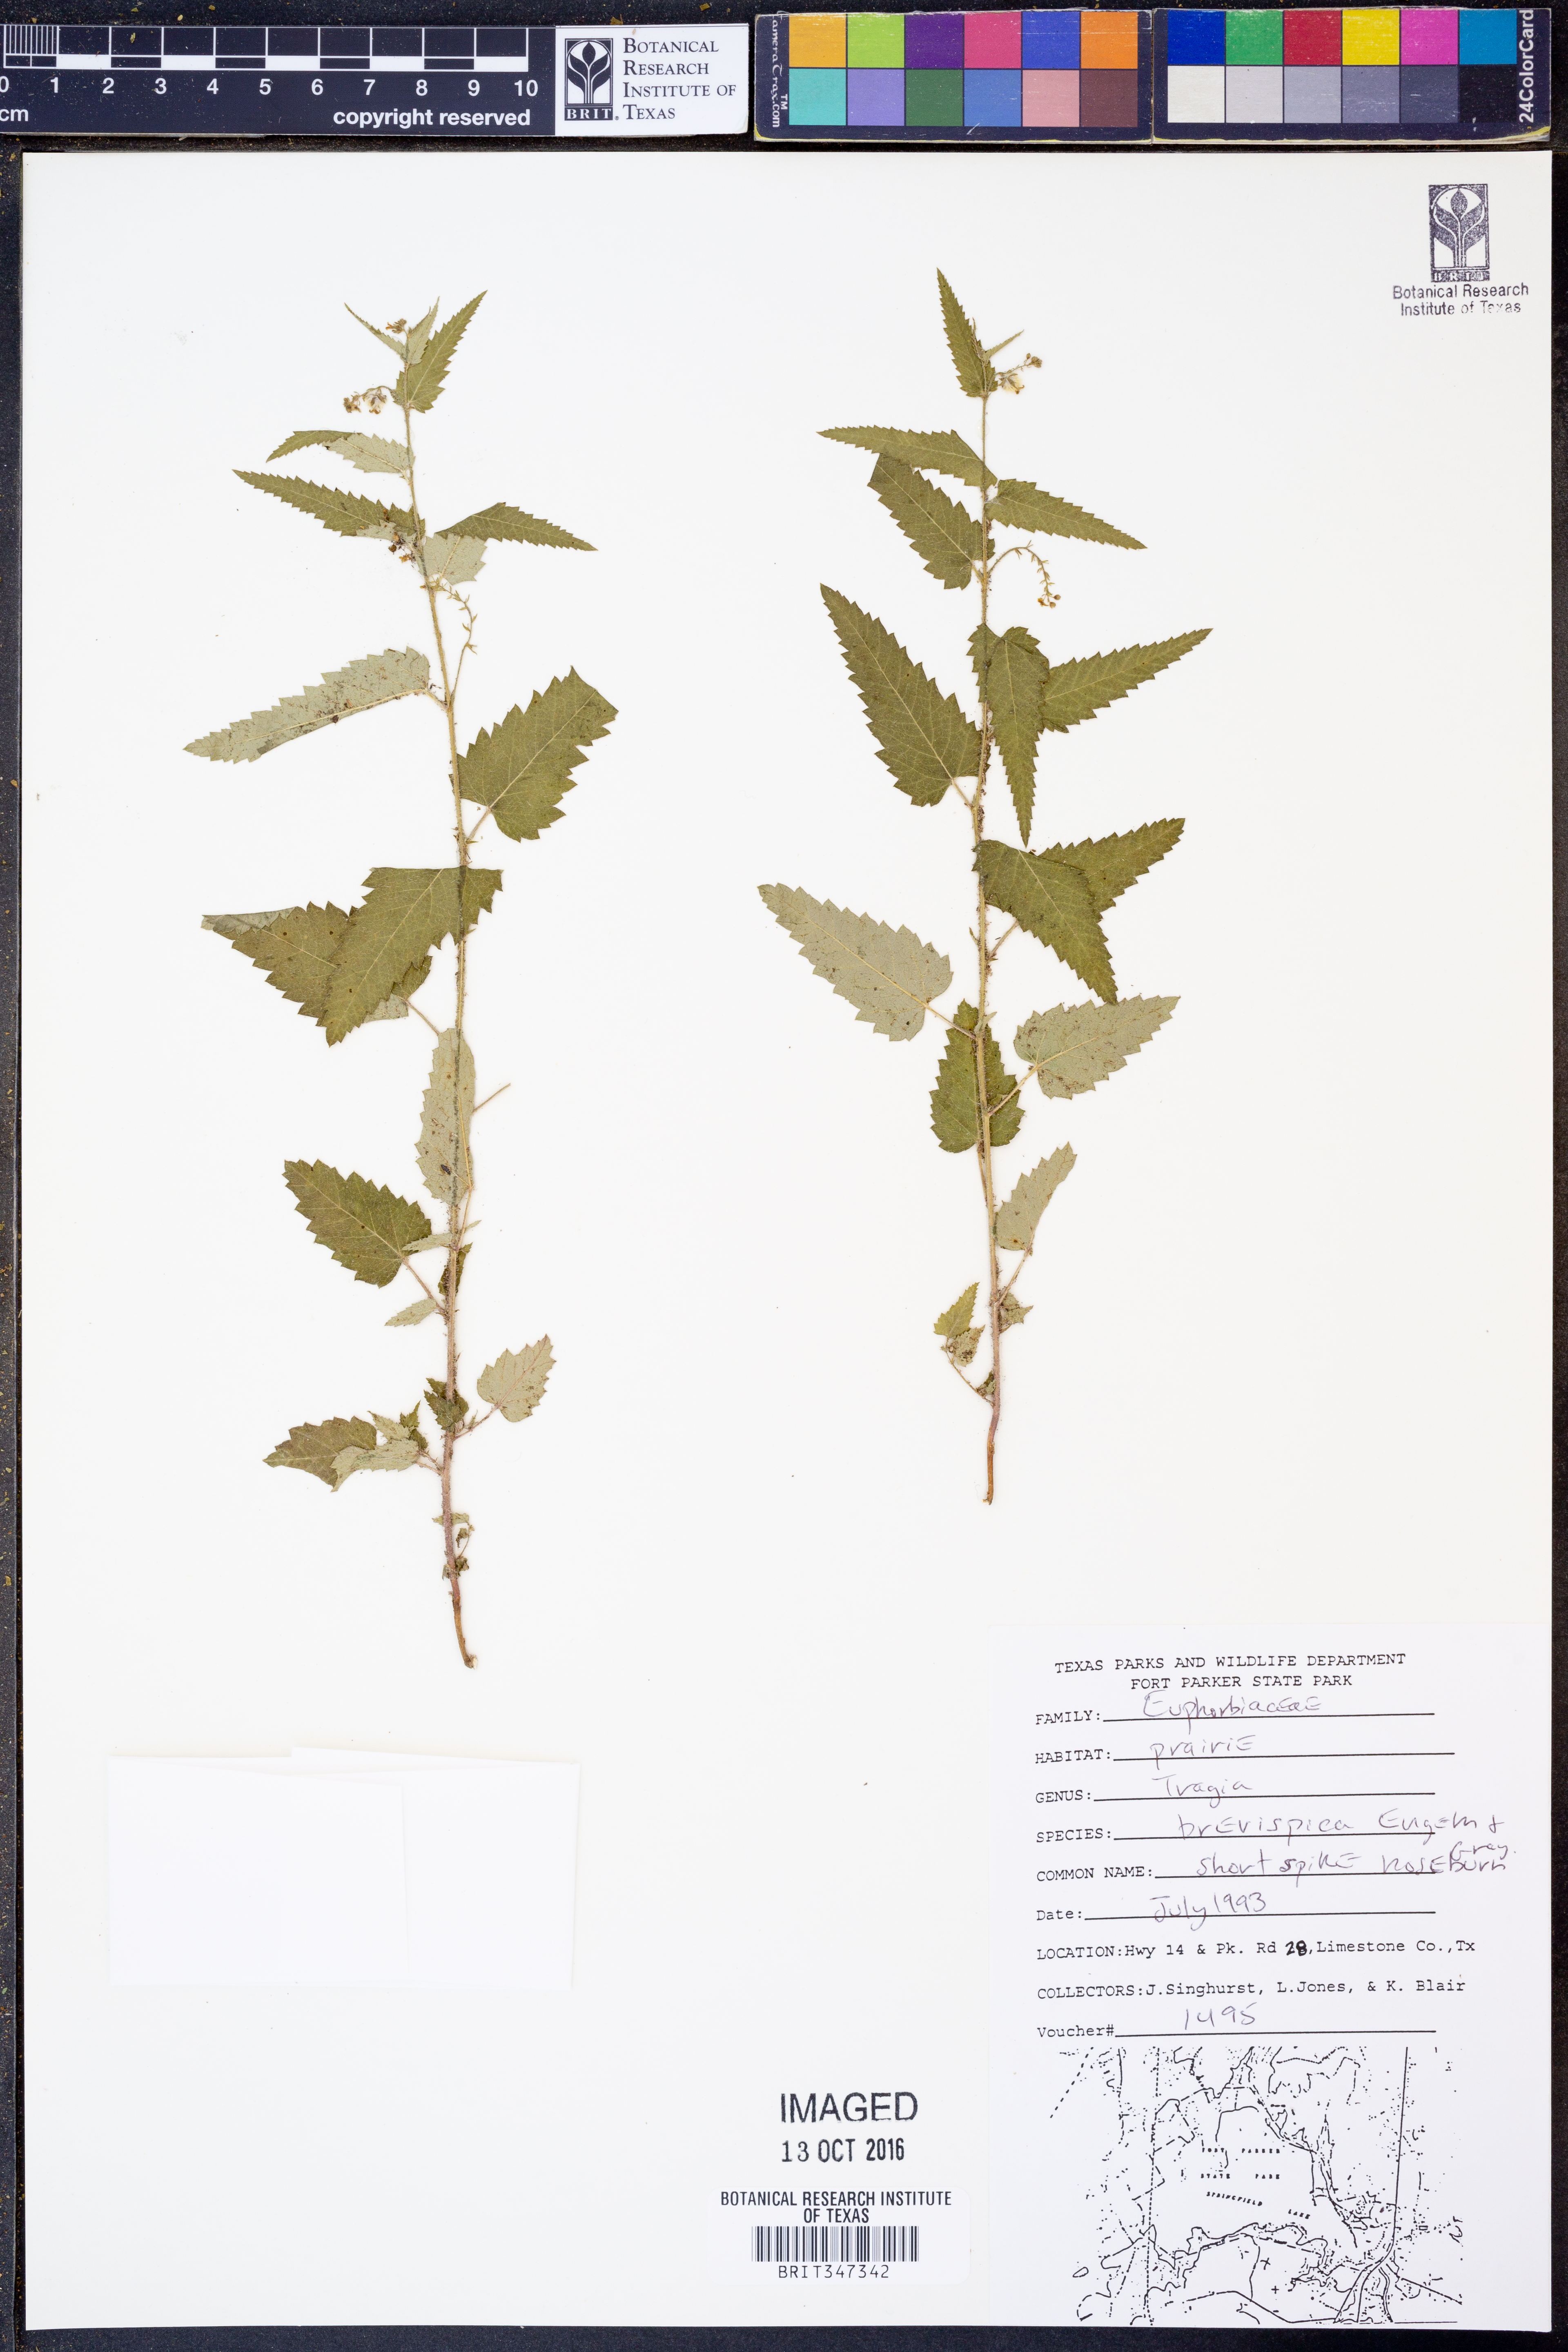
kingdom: Plantae
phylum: Tracheophyta
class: Magnoliopsida
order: Malpighiales
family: Euphorbiaceae
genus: Tragia
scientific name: Tragia brevispica
